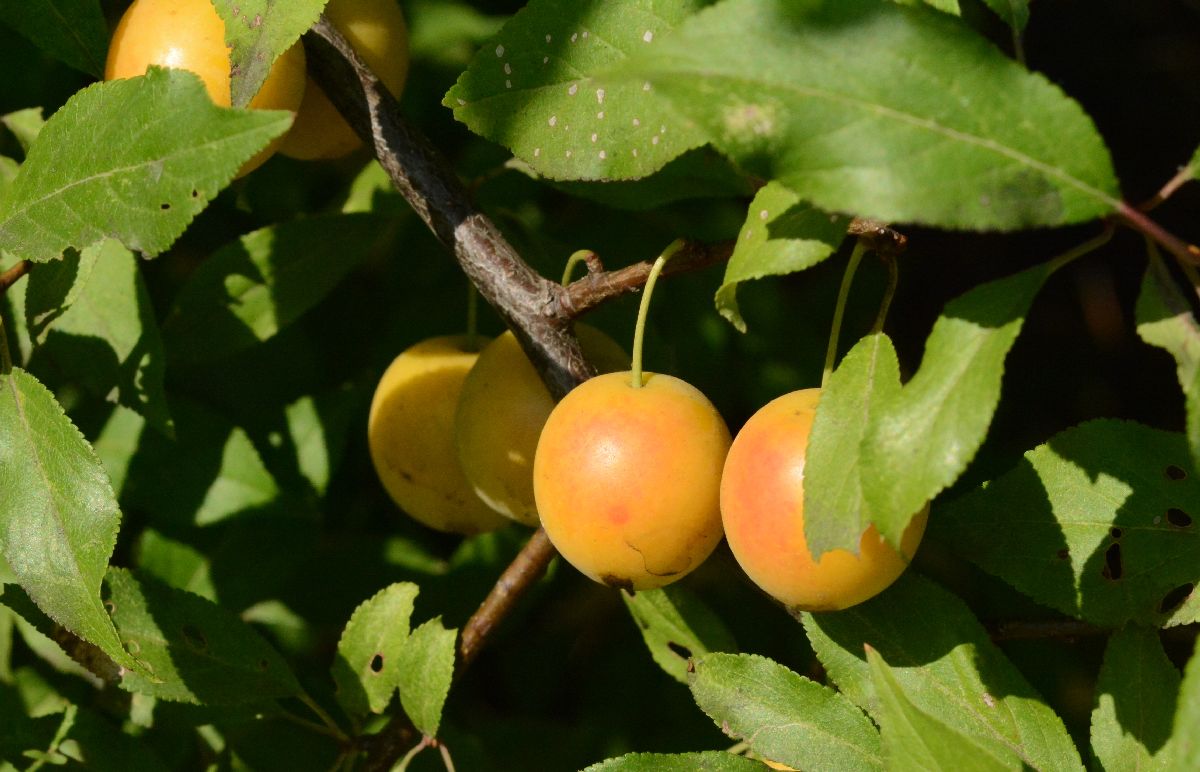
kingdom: Plantae
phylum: Tracheophyta
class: Magnoliopsida
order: Rosales
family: Rosaceae
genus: Prunus
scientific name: Prunus cerasifera
